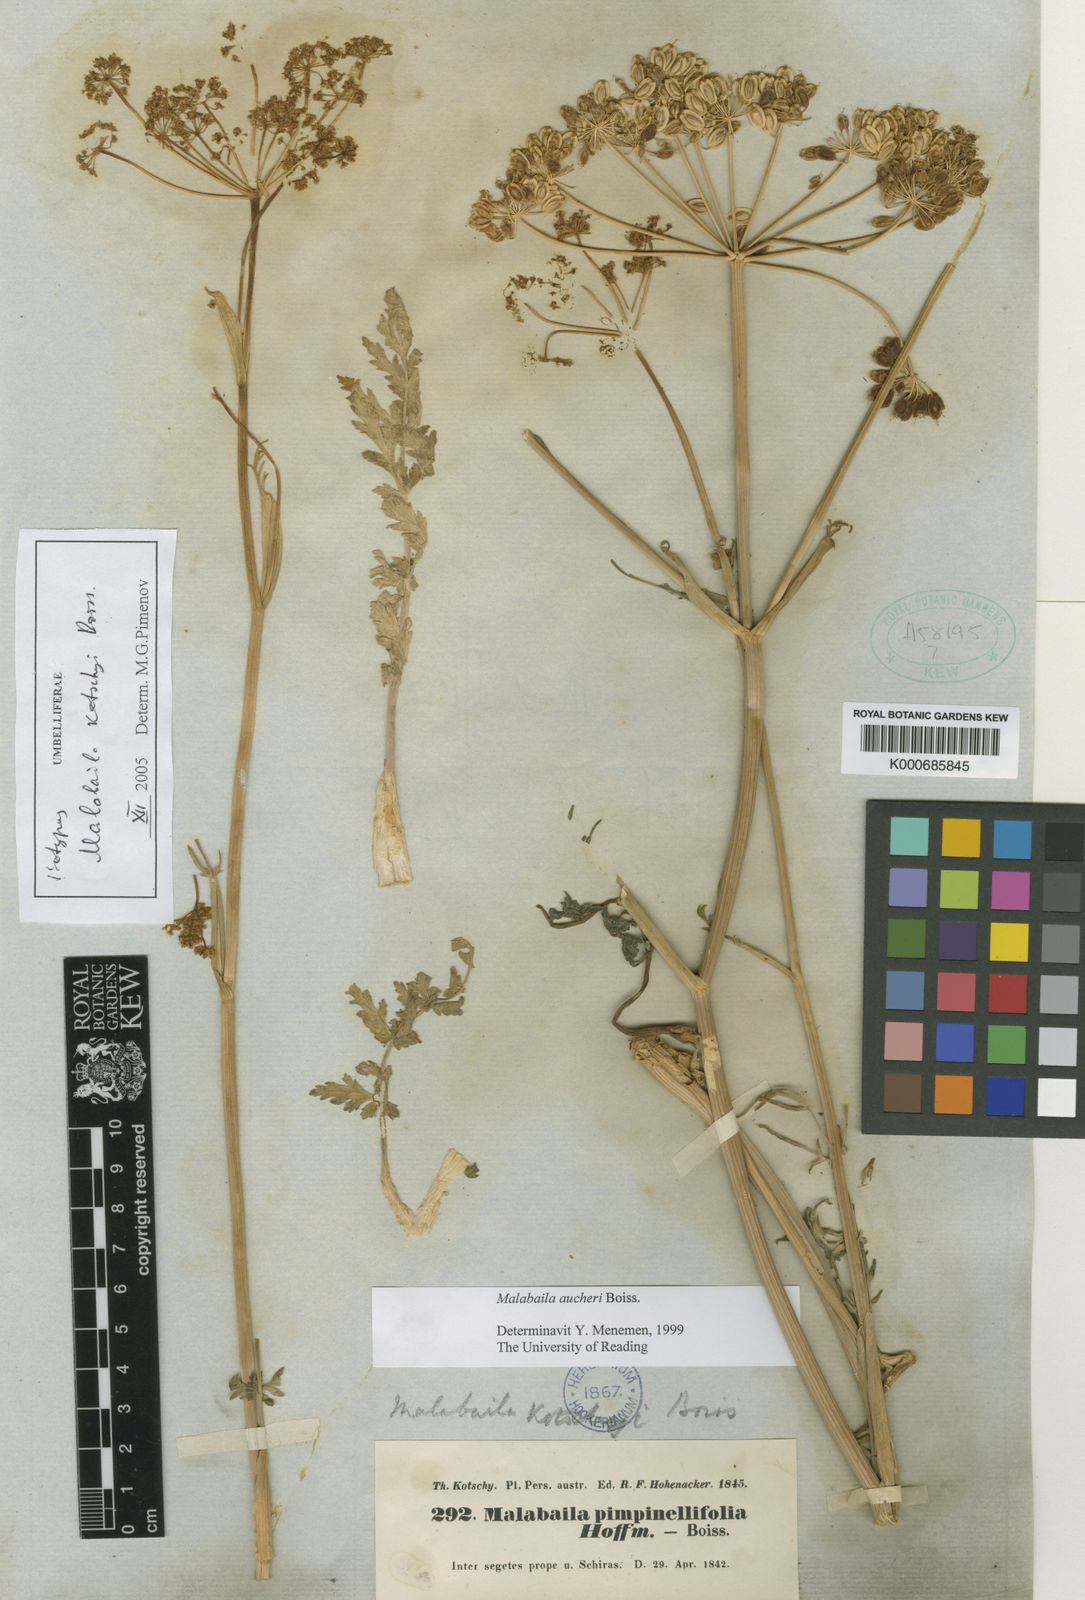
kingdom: Plantae
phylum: Tracheophyta
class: Magnoliopsida
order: Apiales
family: Apiaceae
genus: Leiotulus
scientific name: Leiotulus secacul
